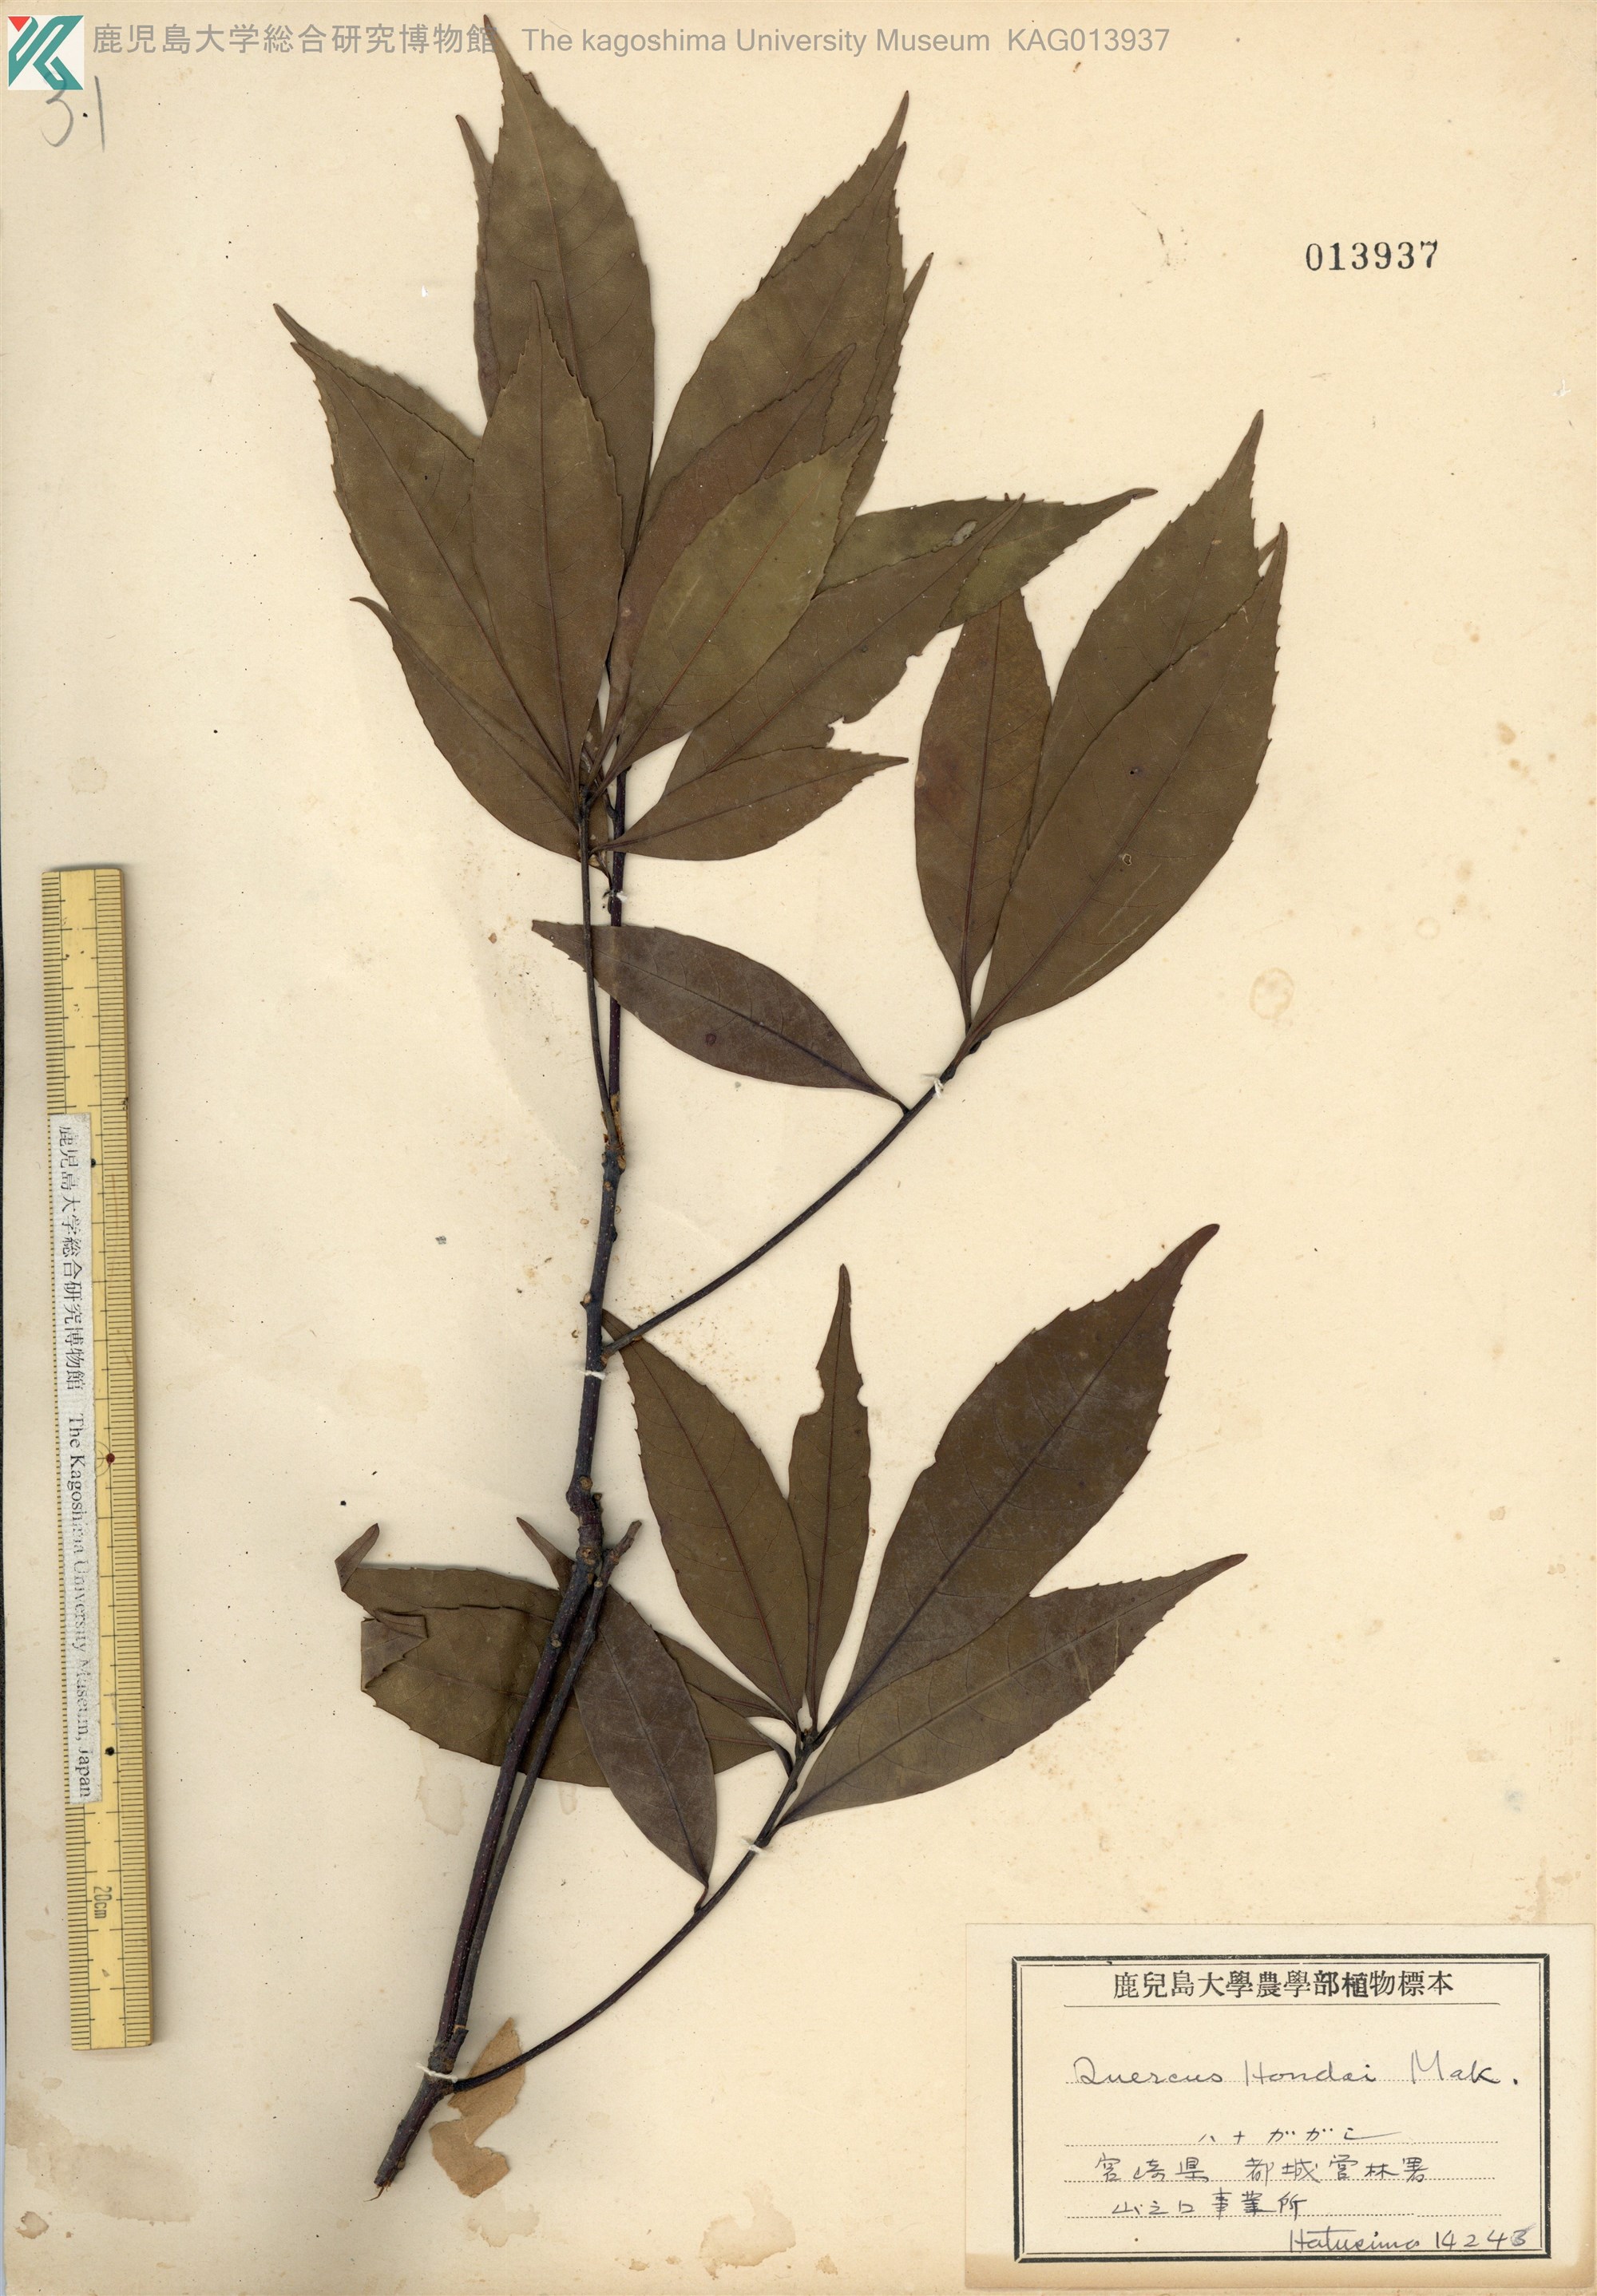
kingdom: Plantae
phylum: Tracheophyta
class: Magnoliopsida
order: Fagales
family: Fagaceae
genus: Quercus
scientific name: Quercus hondae
